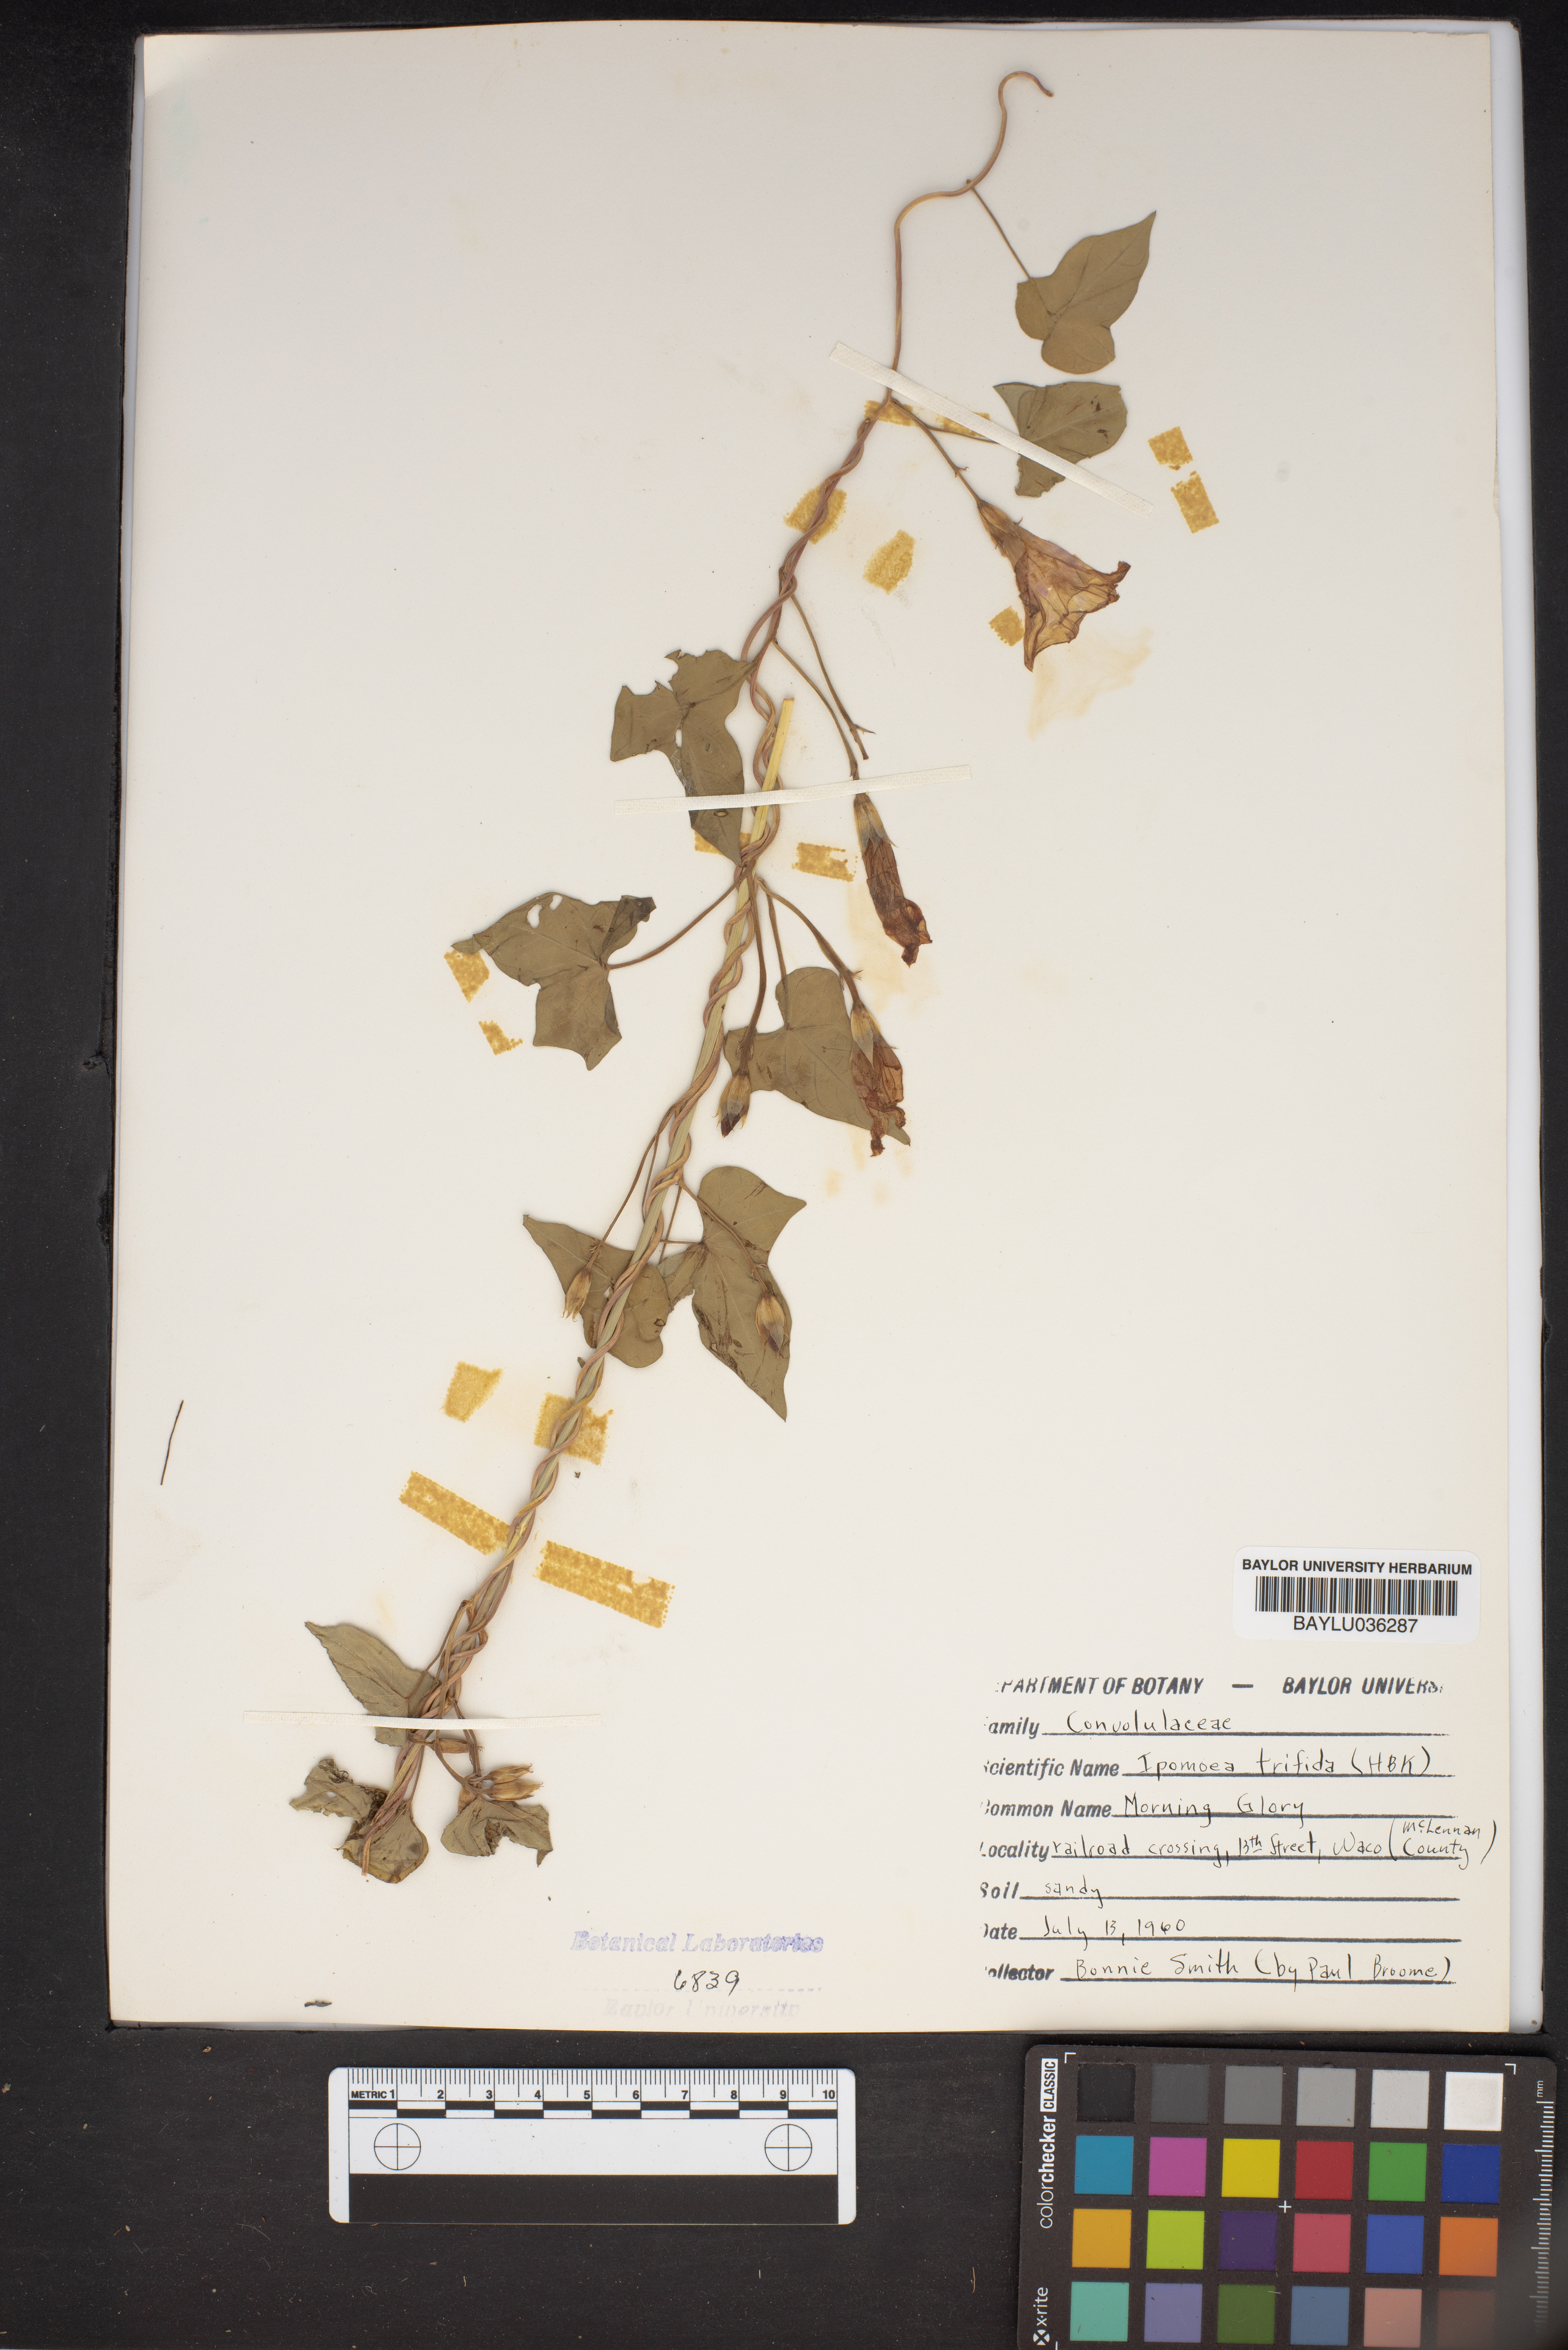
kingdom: Plantae
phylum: Tracheophyta
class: Magnoliopsida
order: Solanales
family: Convolvulaceae
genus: Ipomoea
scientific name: Ipomoea trifida
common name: Cotton morningglory
